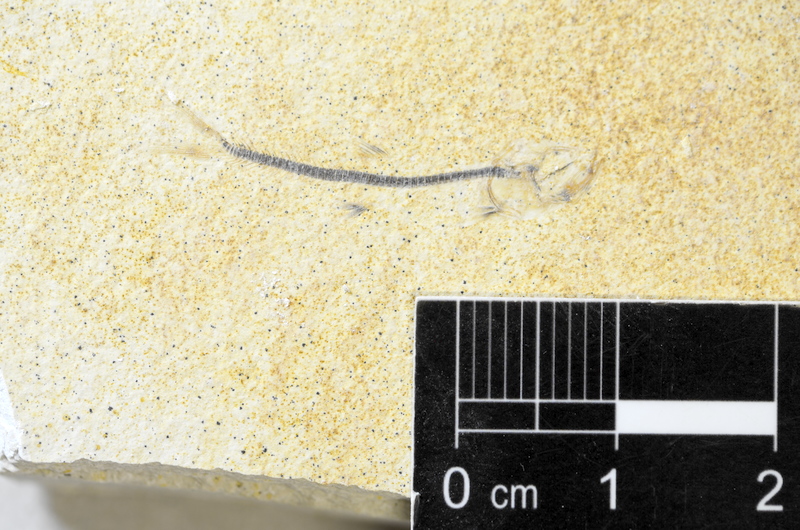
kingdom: Animalia
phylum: Chordata
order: Salmoniformes
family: Orthogonikleithridae
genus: Orthogonikleithrus
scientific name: Orthogonikleithrus hoelli
